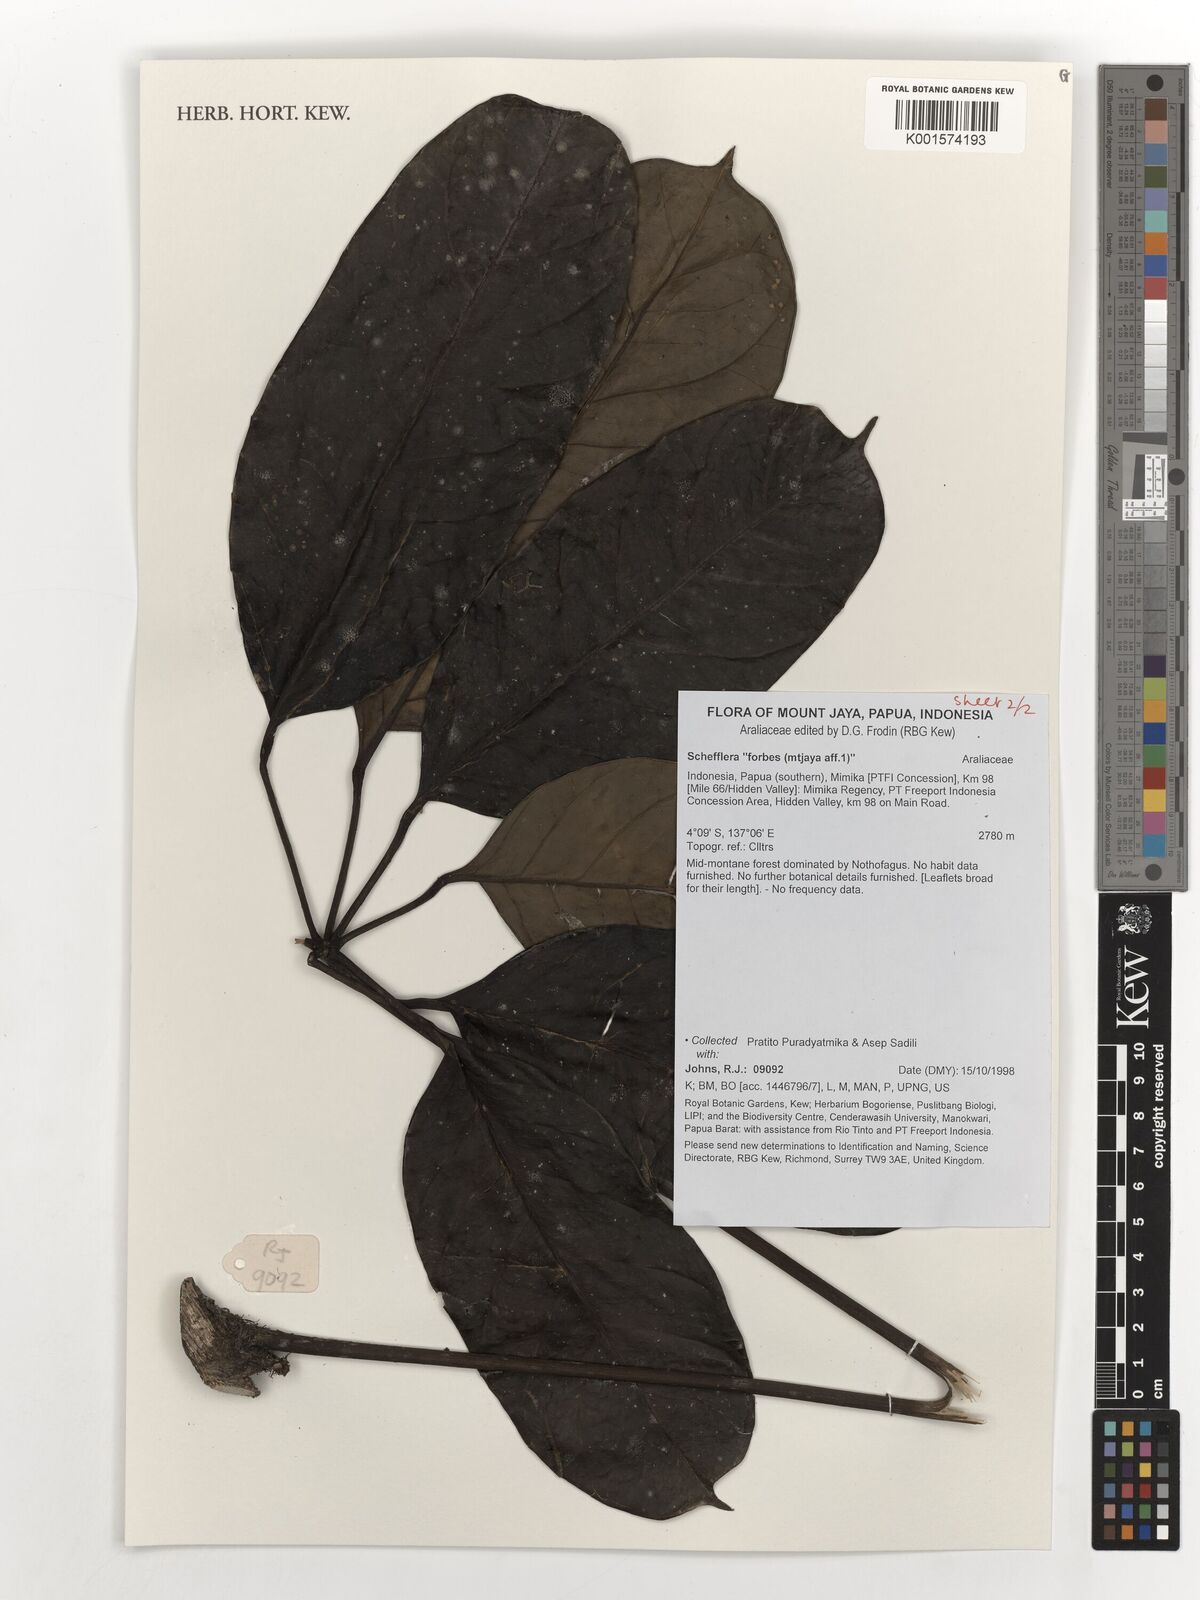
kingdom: Plantae
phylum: Tracheophyta
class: Magnoliopsida
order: Apiales
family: Araliaceae
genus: Schefflera
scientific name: Schefflera
